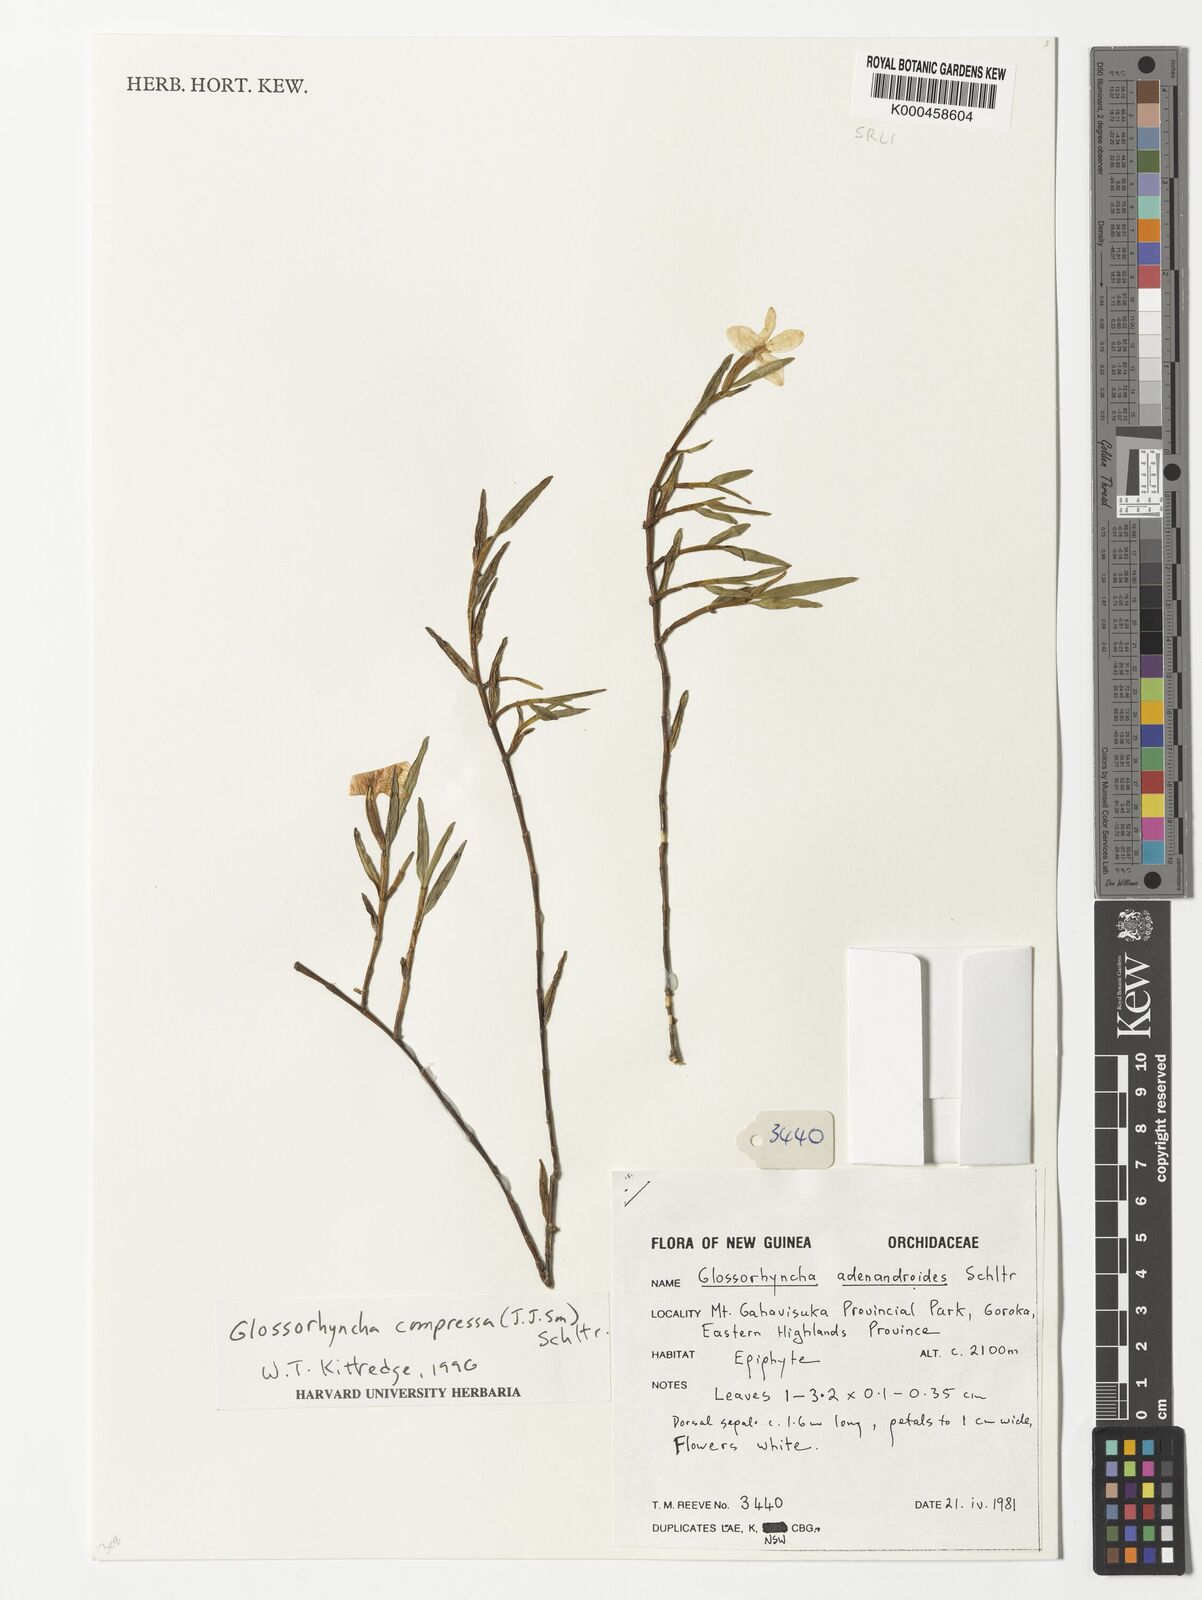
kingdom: Plantae
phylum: Tracheophyta
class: Liliopsida
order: Asparagales
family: Orchidaceae
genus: Glomera
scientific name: Glomera compressa
